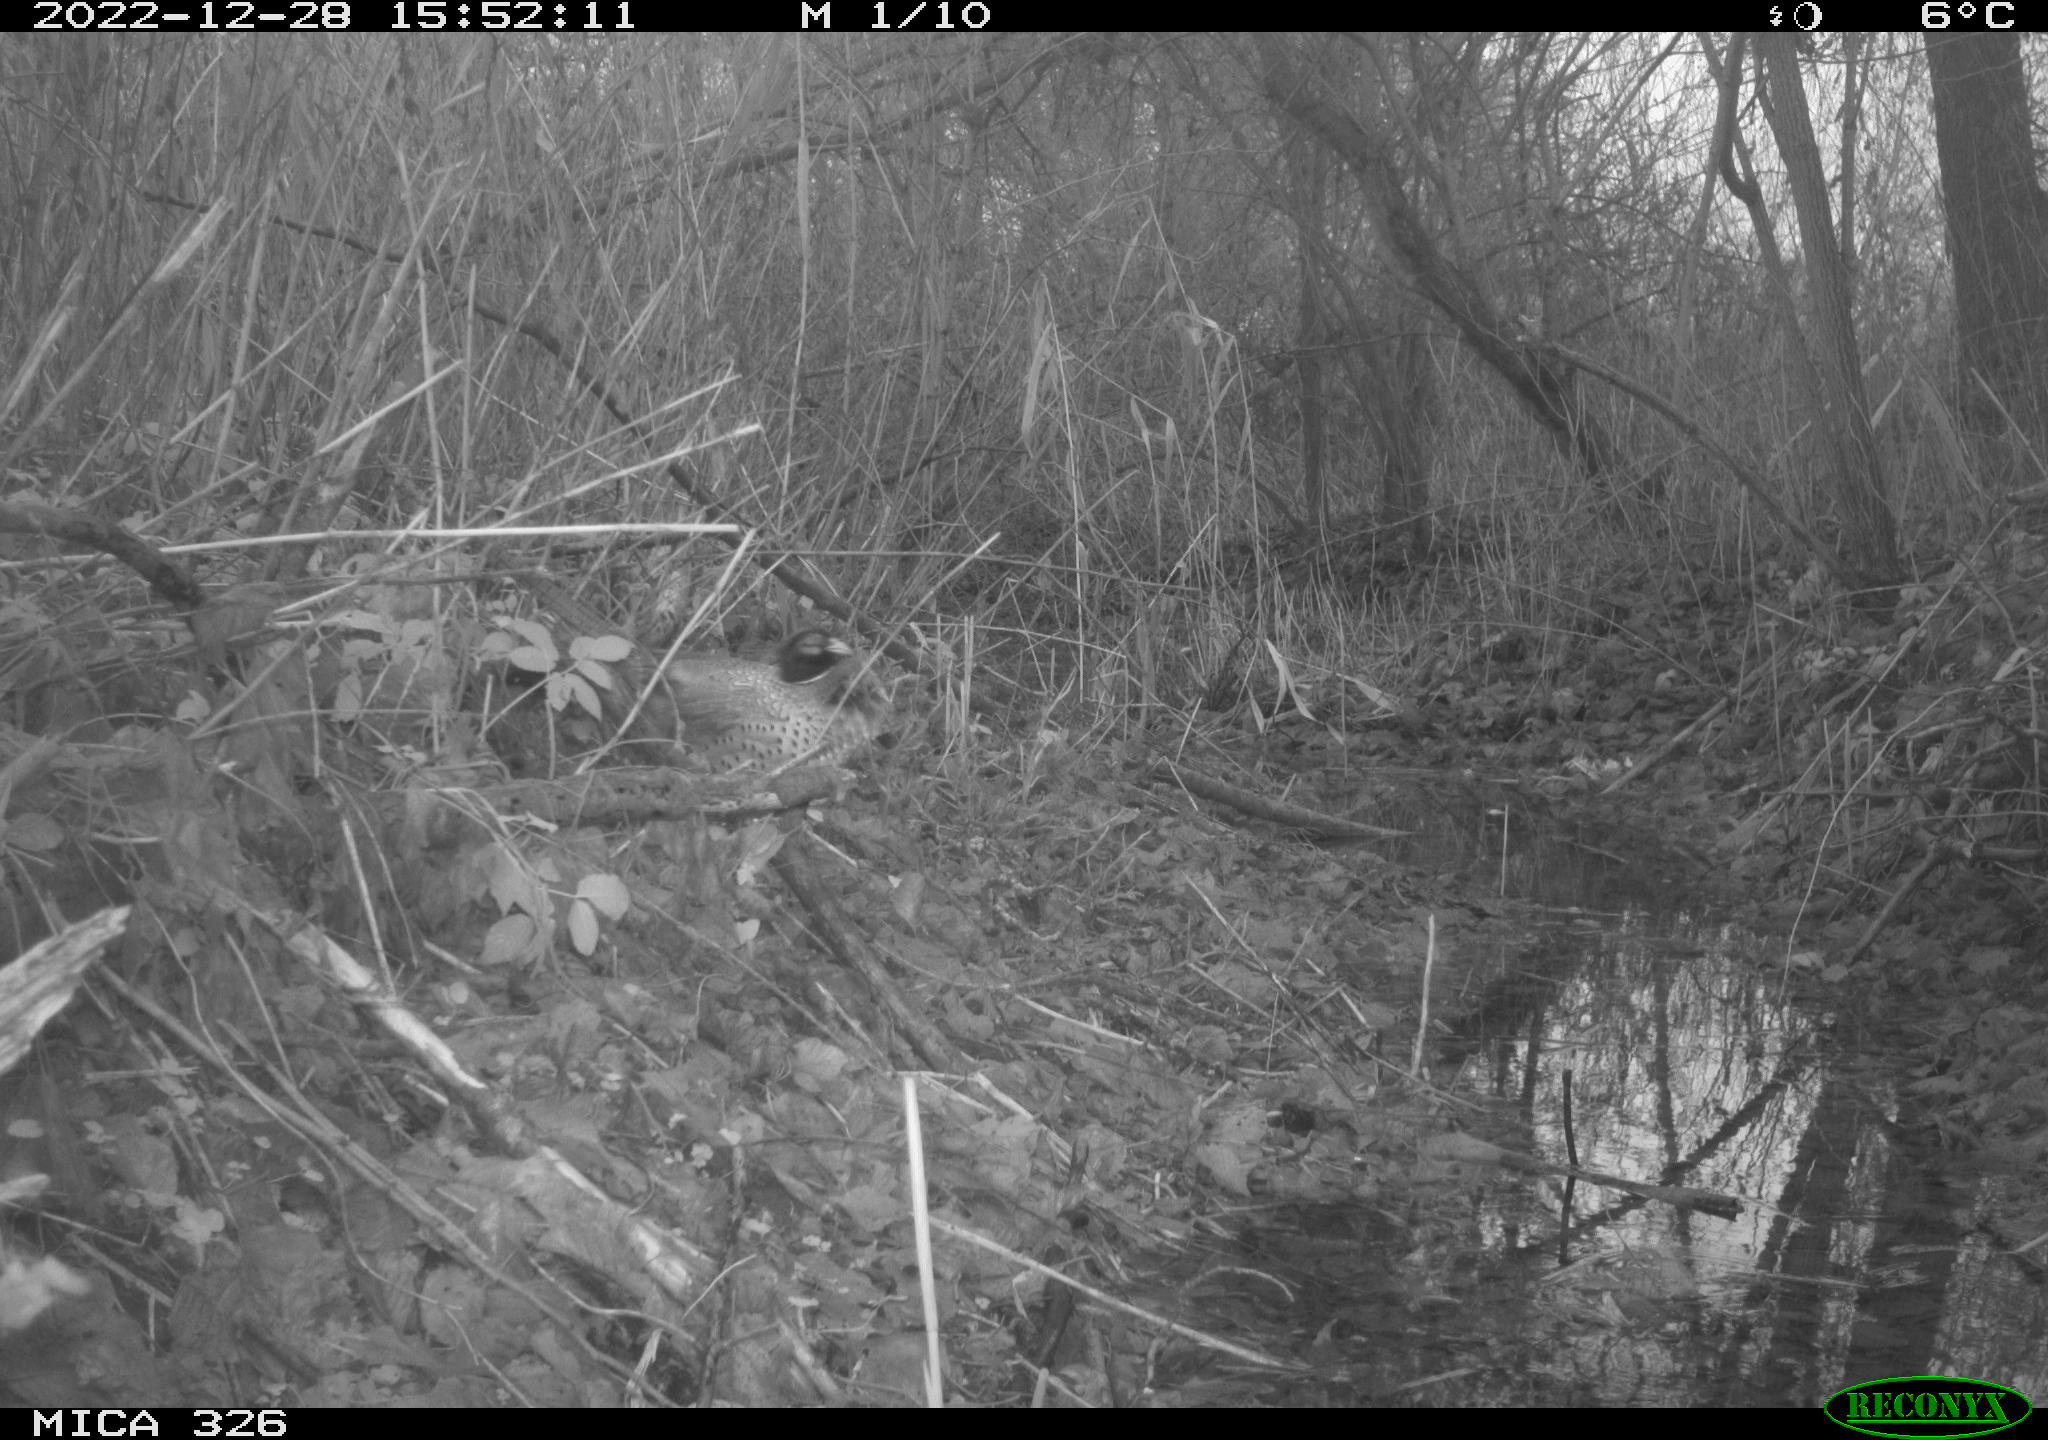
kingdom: Animalia
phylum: Chordata
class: Aves
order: Galliformes
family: Phasianidae
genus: Phasianus
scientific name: Phasianus colchicus
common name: Common pheasant
